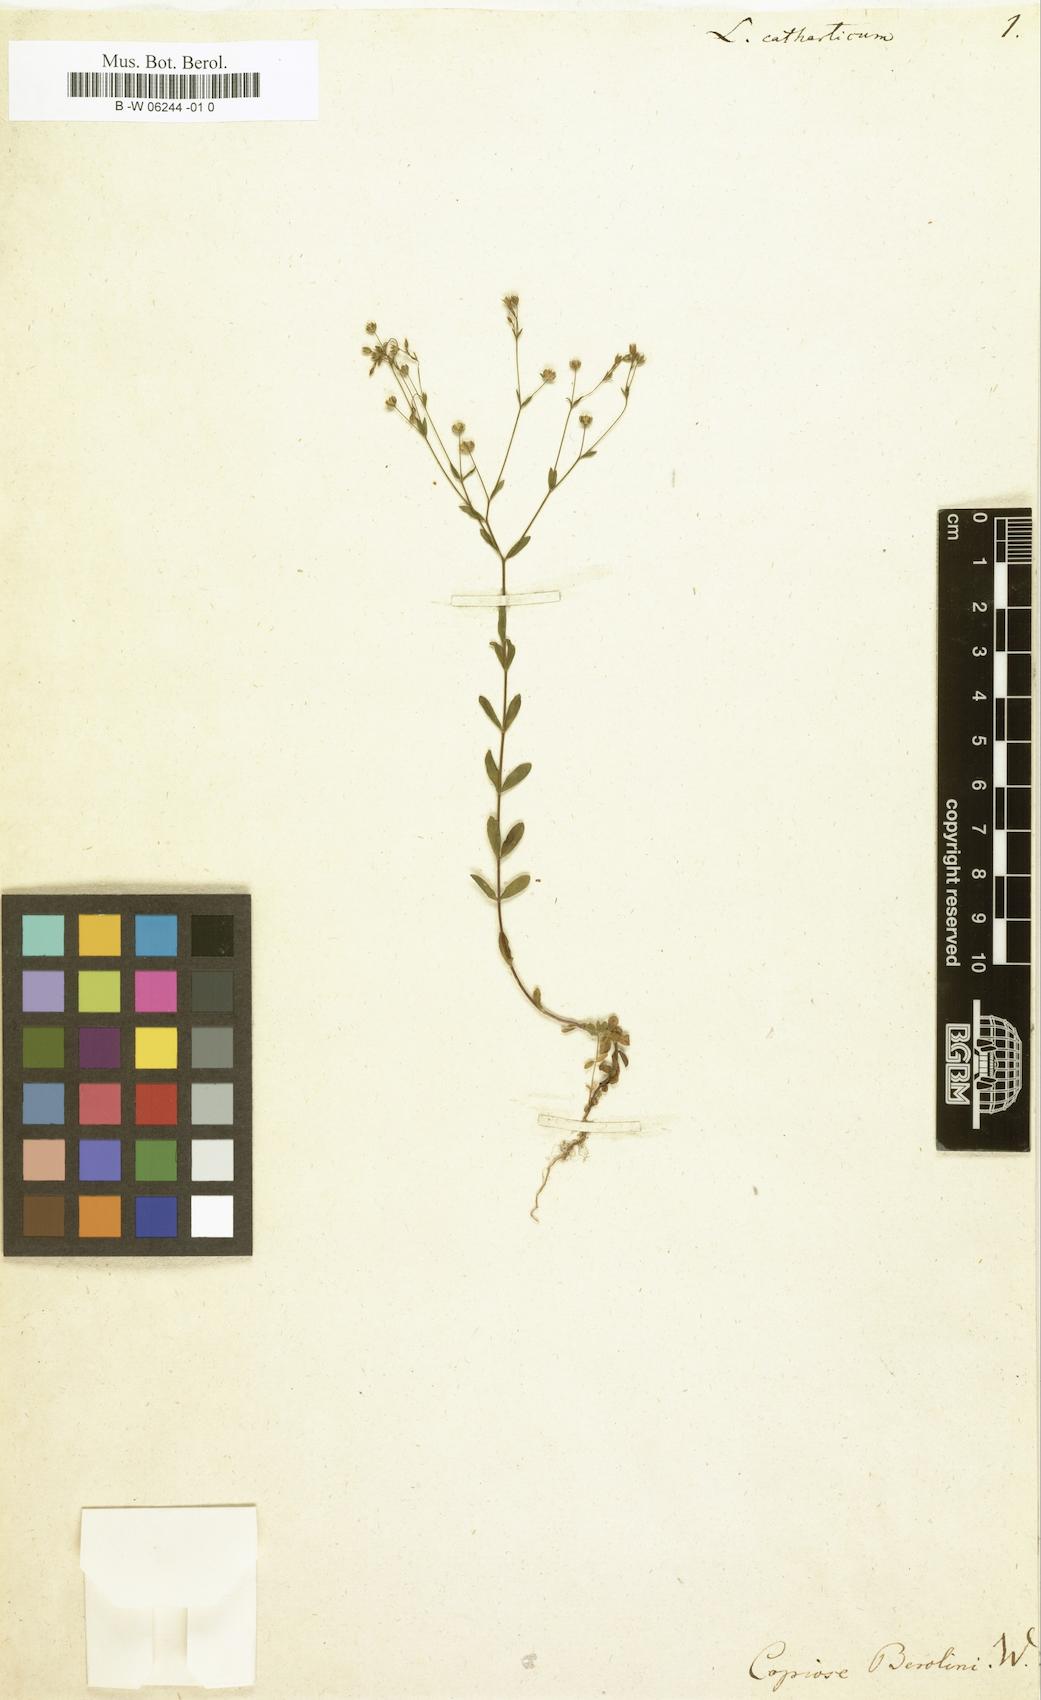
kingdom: Plantae
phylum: Tracheophyta
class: Magnoliopsida
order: Malpighiales
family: Linaceae
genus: Linum
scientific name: Linum catharticum
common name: Fairy flax
